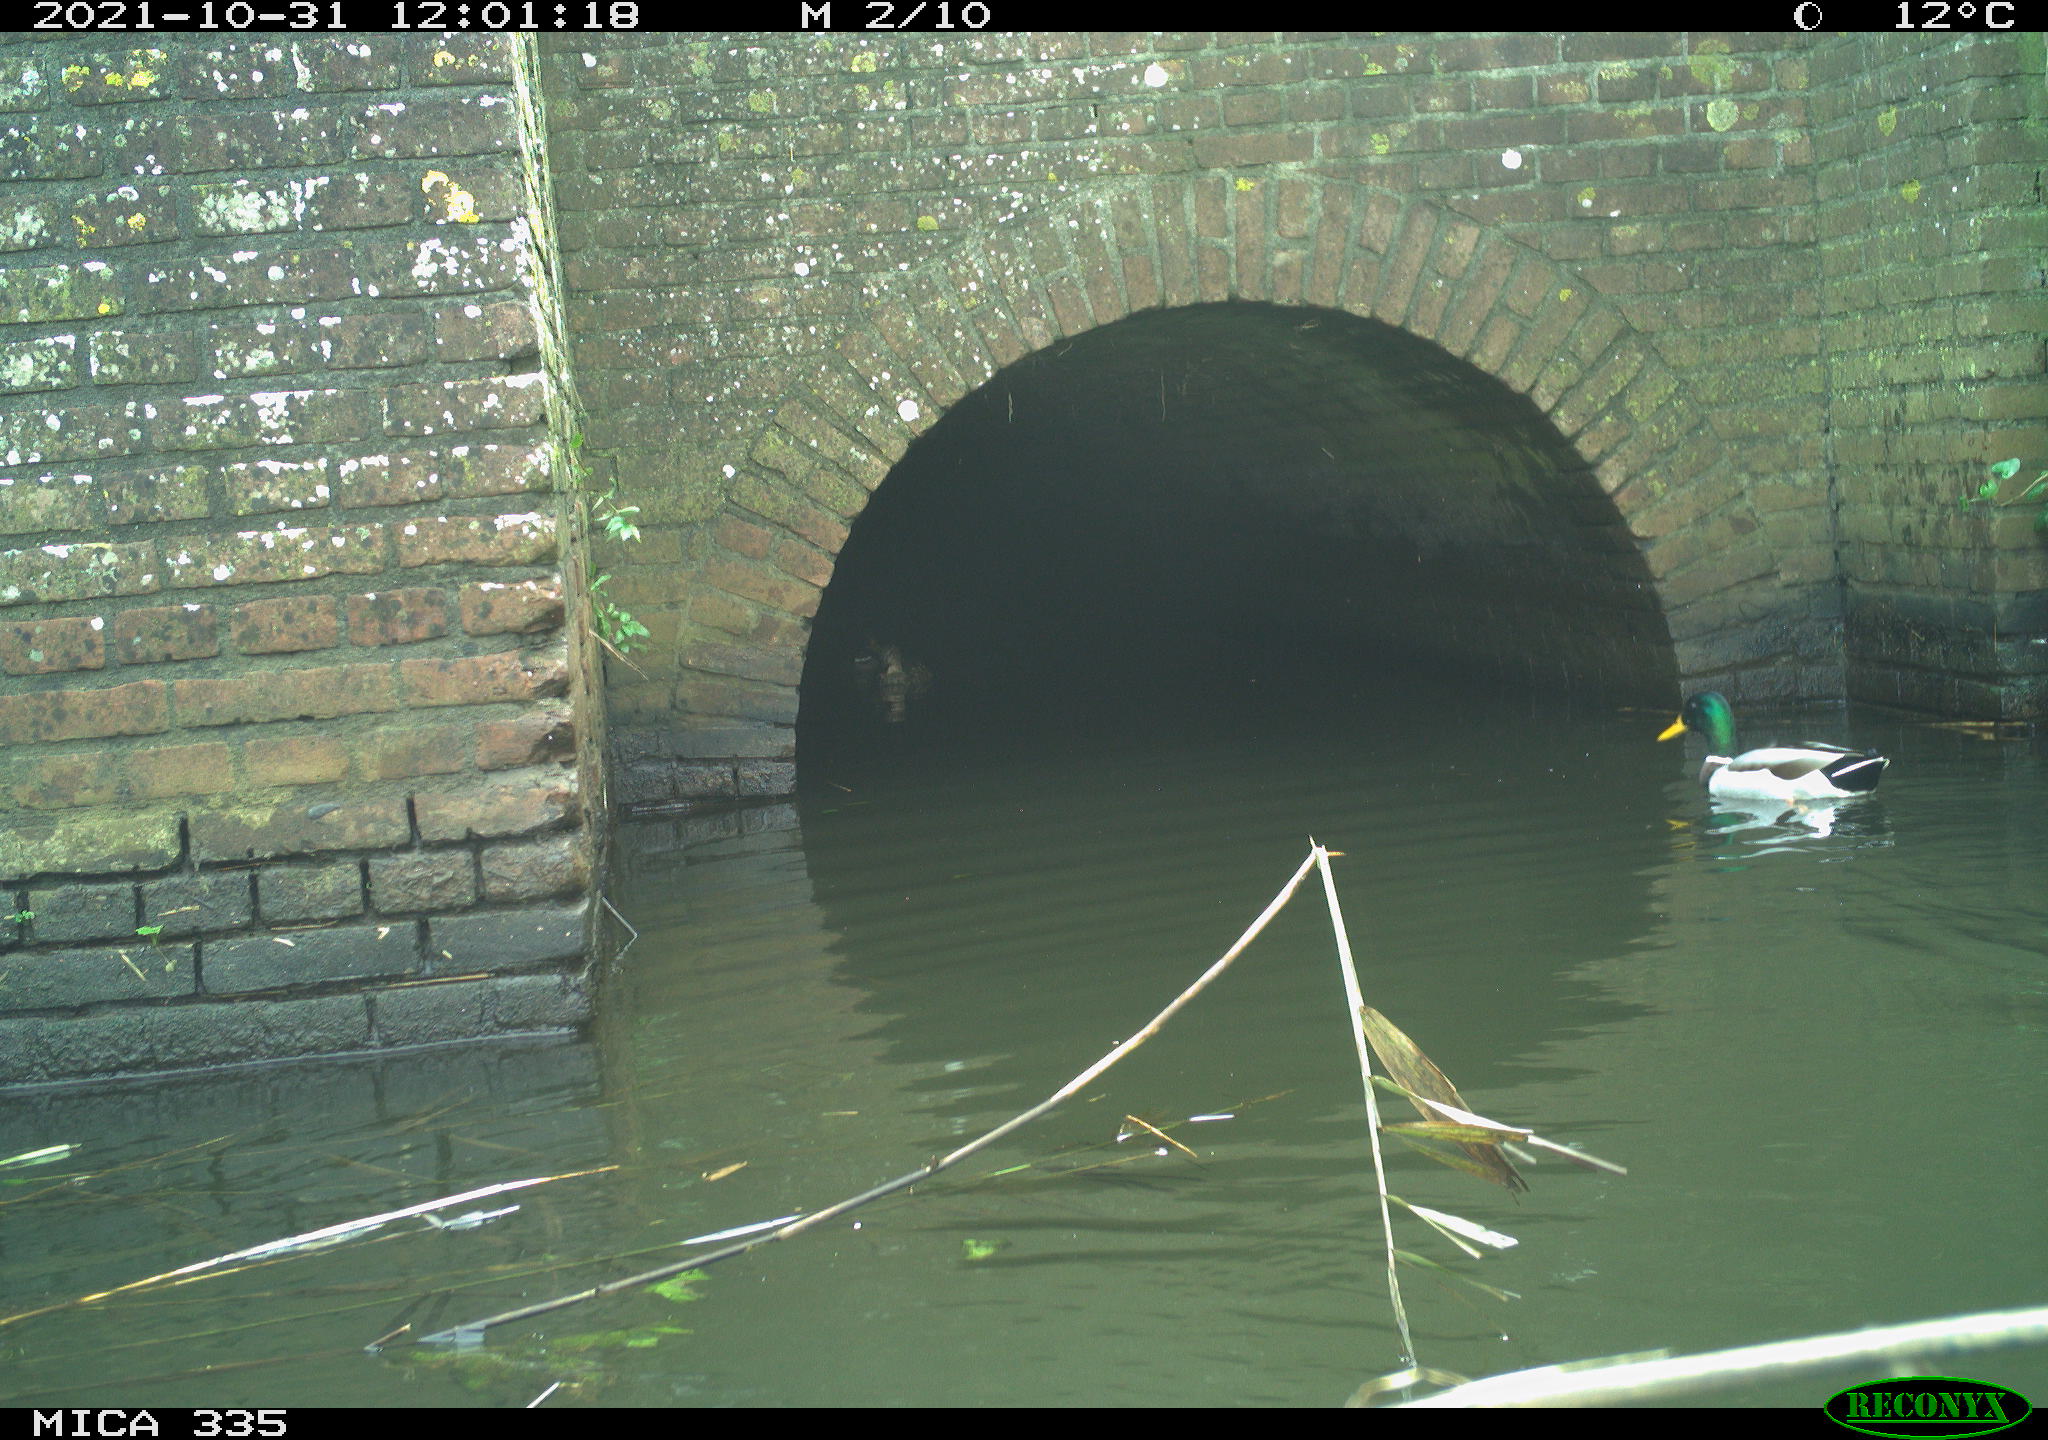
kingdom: Animalia
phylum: Chordata
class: Aves
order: Anseriformes
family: Anatidae
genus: Anas
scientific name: Anas platyrhynchos
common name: Mallard
